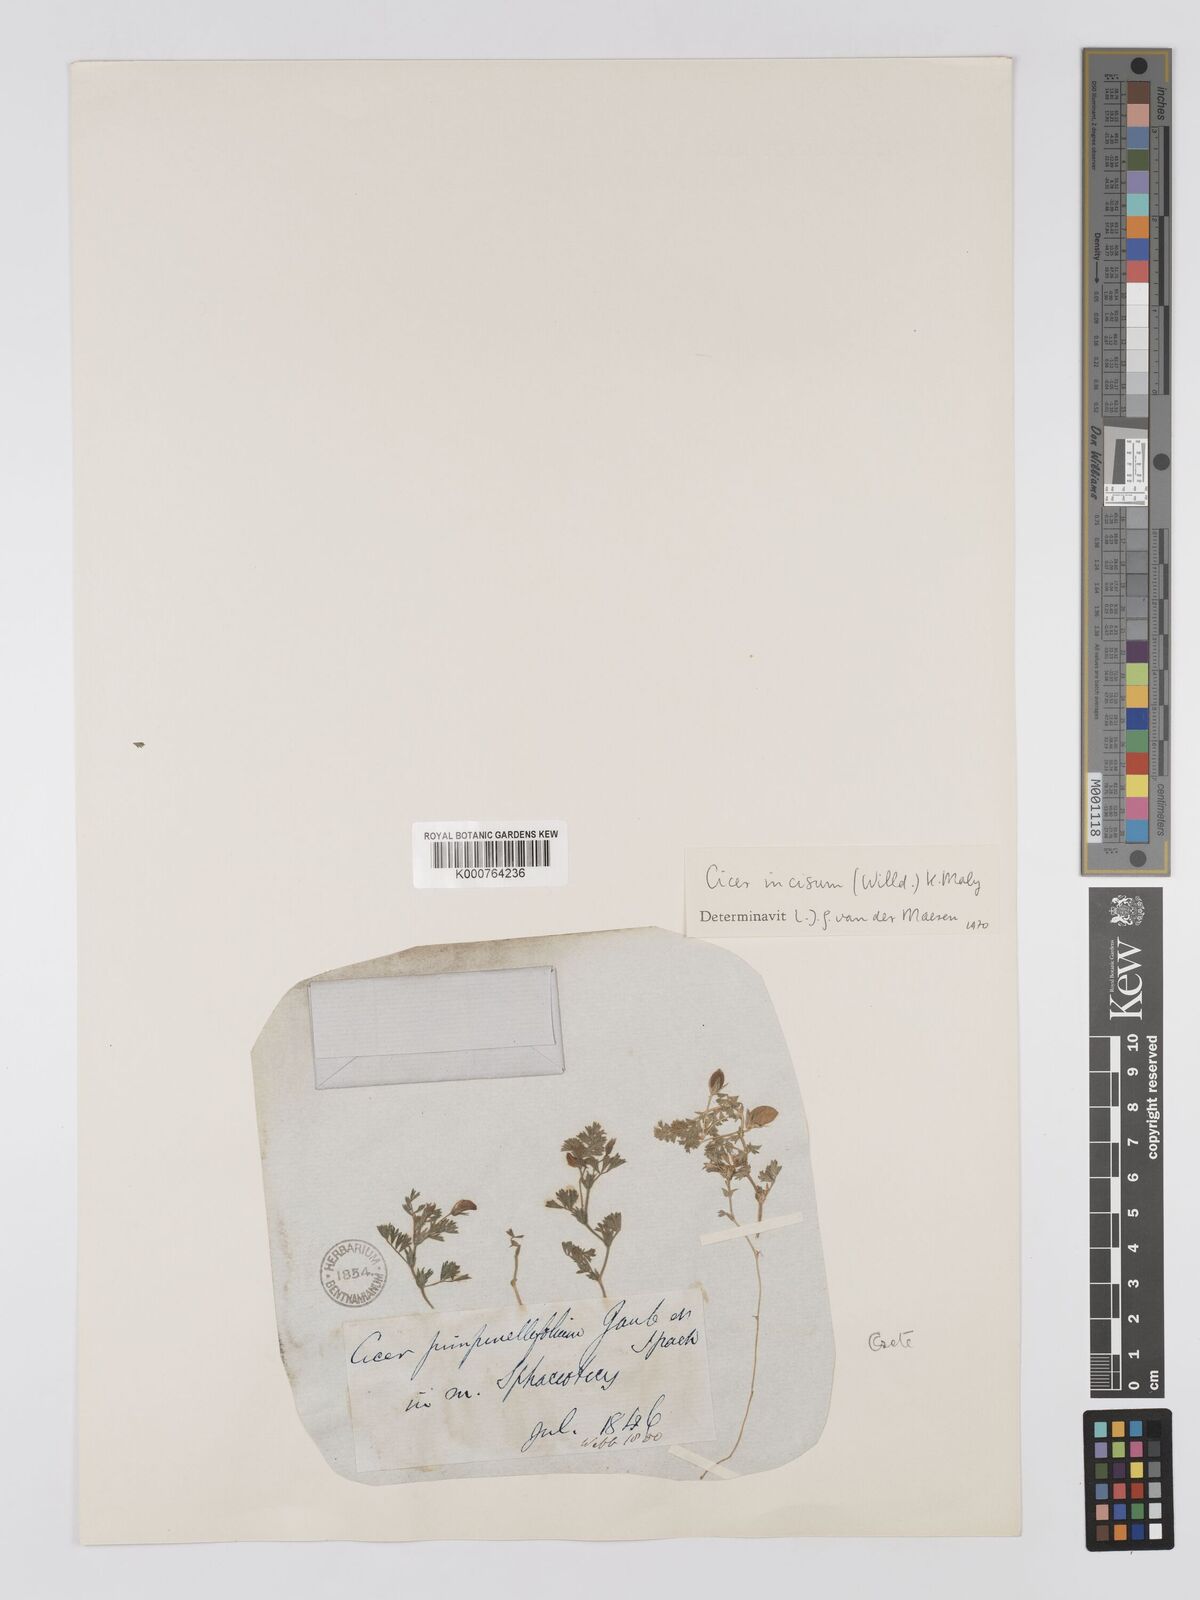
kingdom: Plantae
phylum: Tracheophyta
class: Magnoliopsida
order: Fabales
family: Fabaceae
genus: Cicer
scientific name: Cicer incisum
